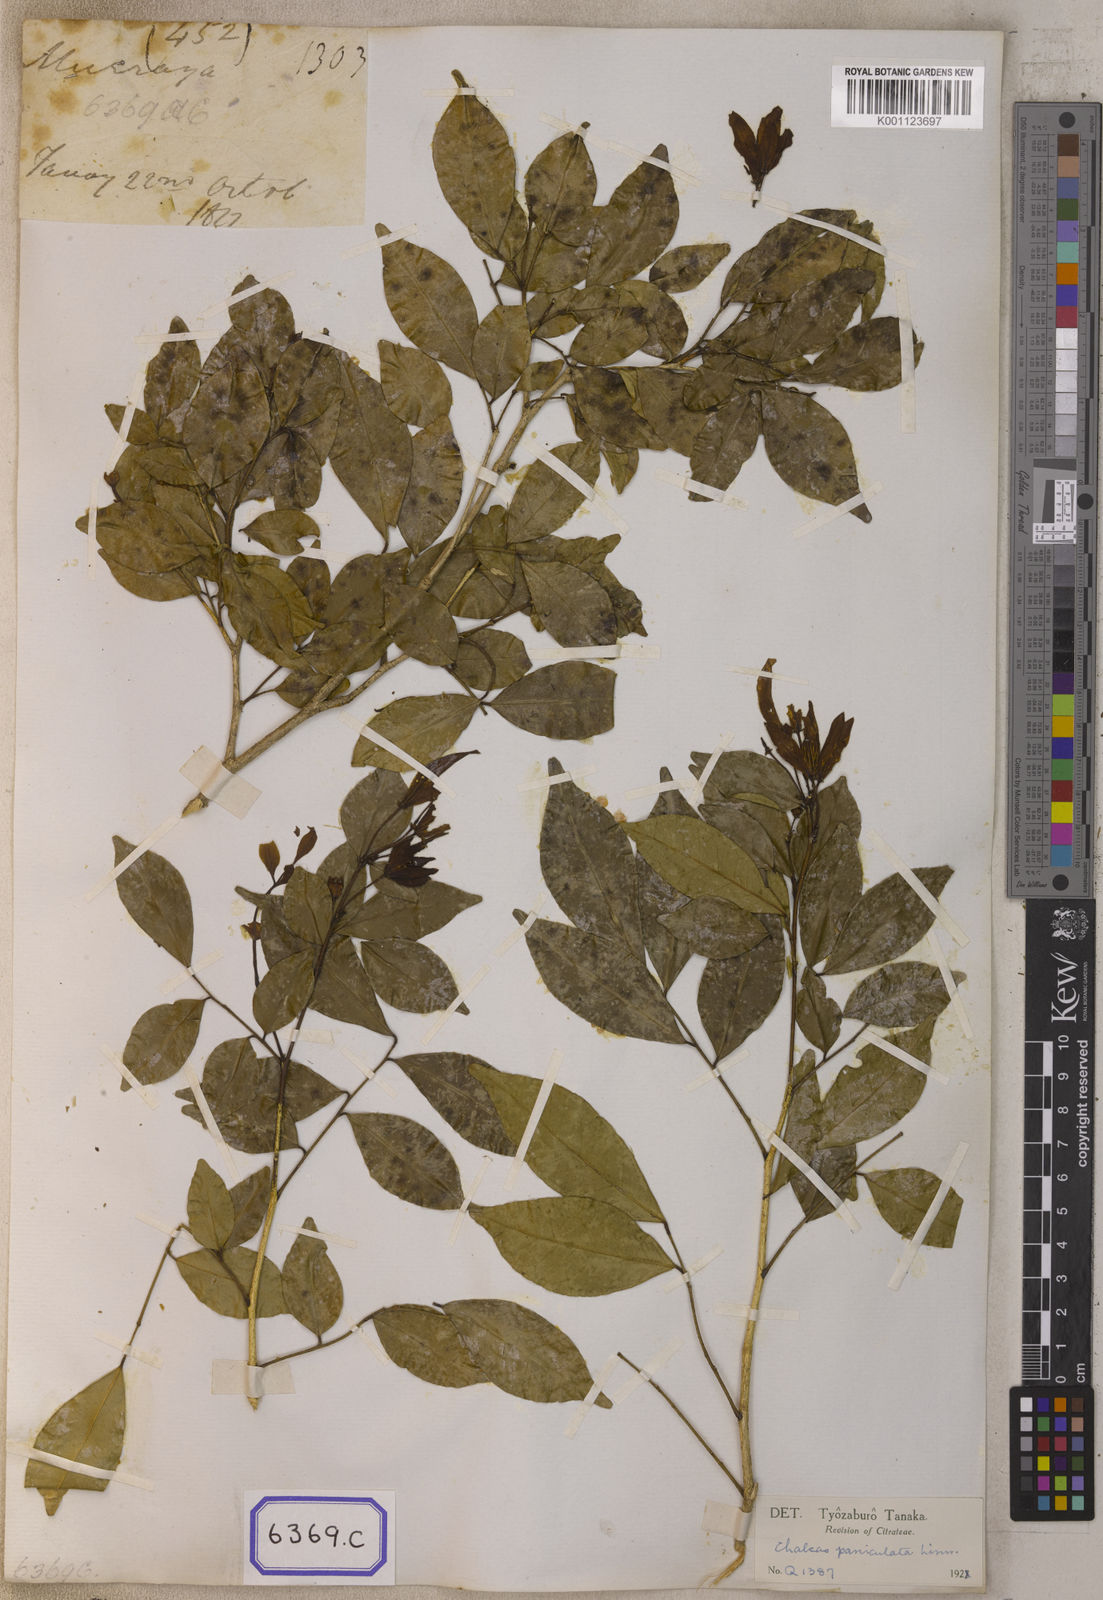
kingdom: Plantae
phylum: Tracheophyta
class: Magnoliopsida
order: Sapindales
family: Rutaceae
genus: Murraya
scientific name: Murraya sumatrana
